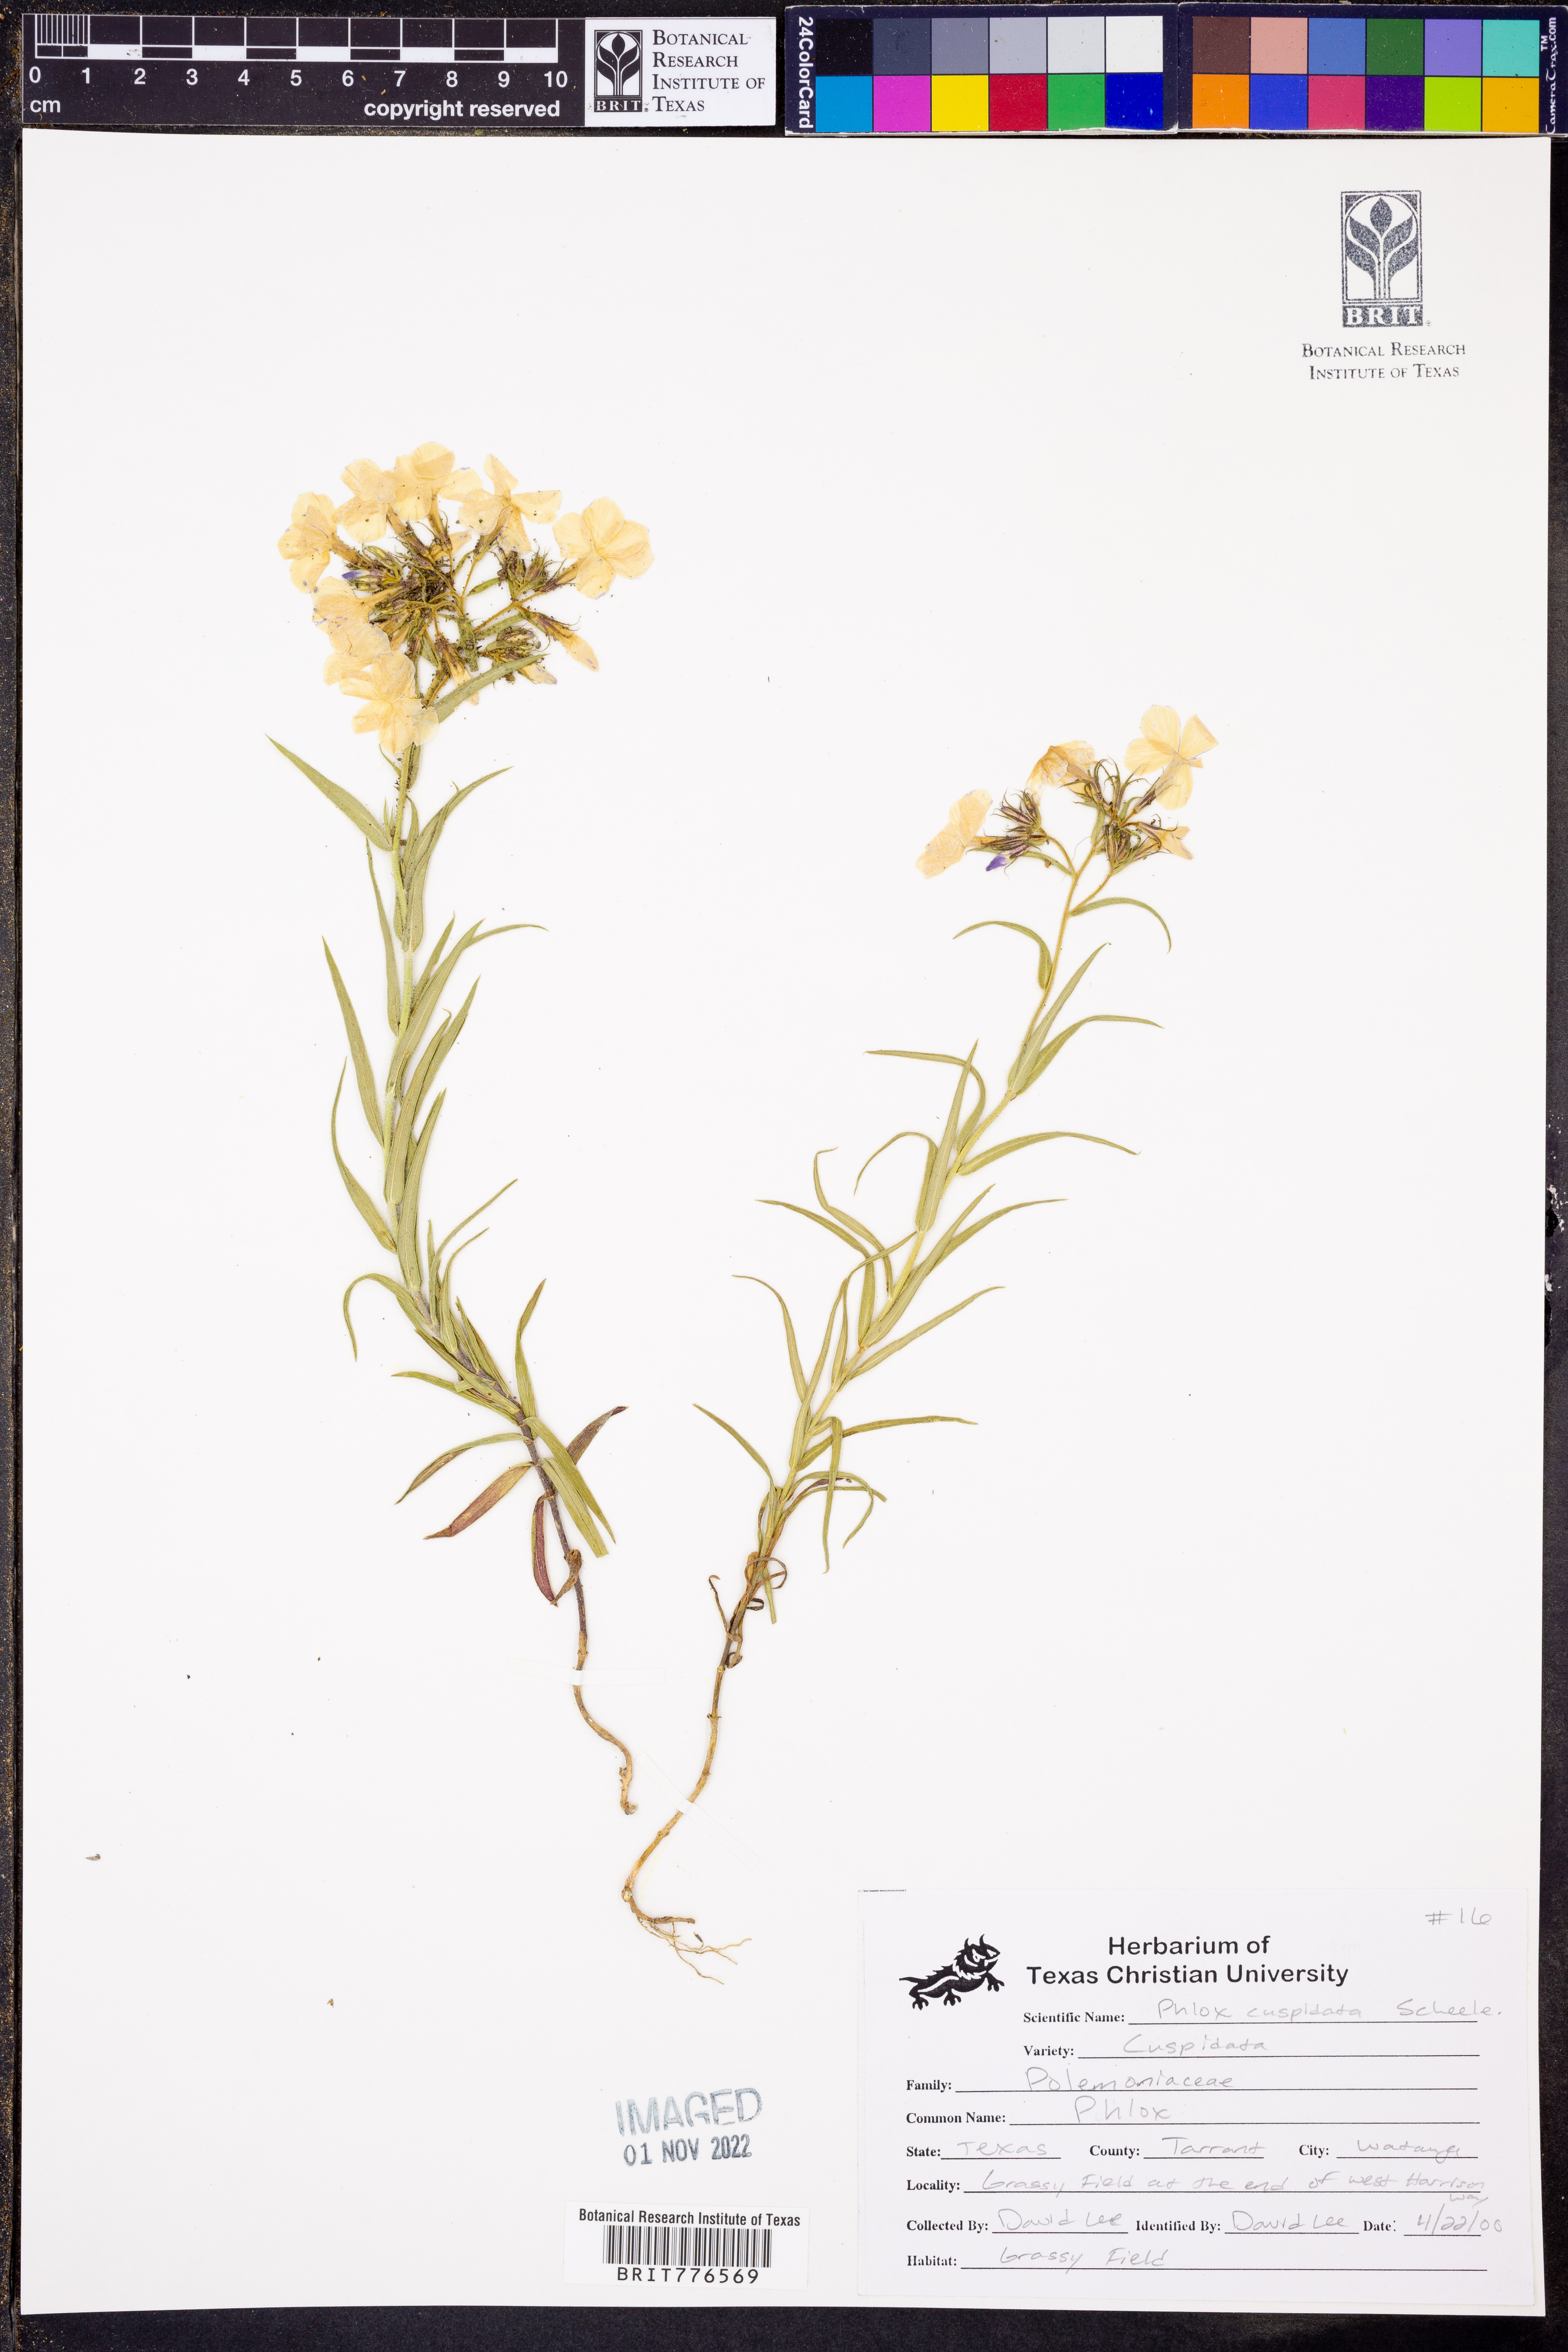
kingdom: Plantae
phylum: Tracheophyta
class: Magnoliopsida
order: Ericales
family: Polemoniaceae
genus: Phlox
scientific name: Phlox cuspidata
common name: Pointed phlox
